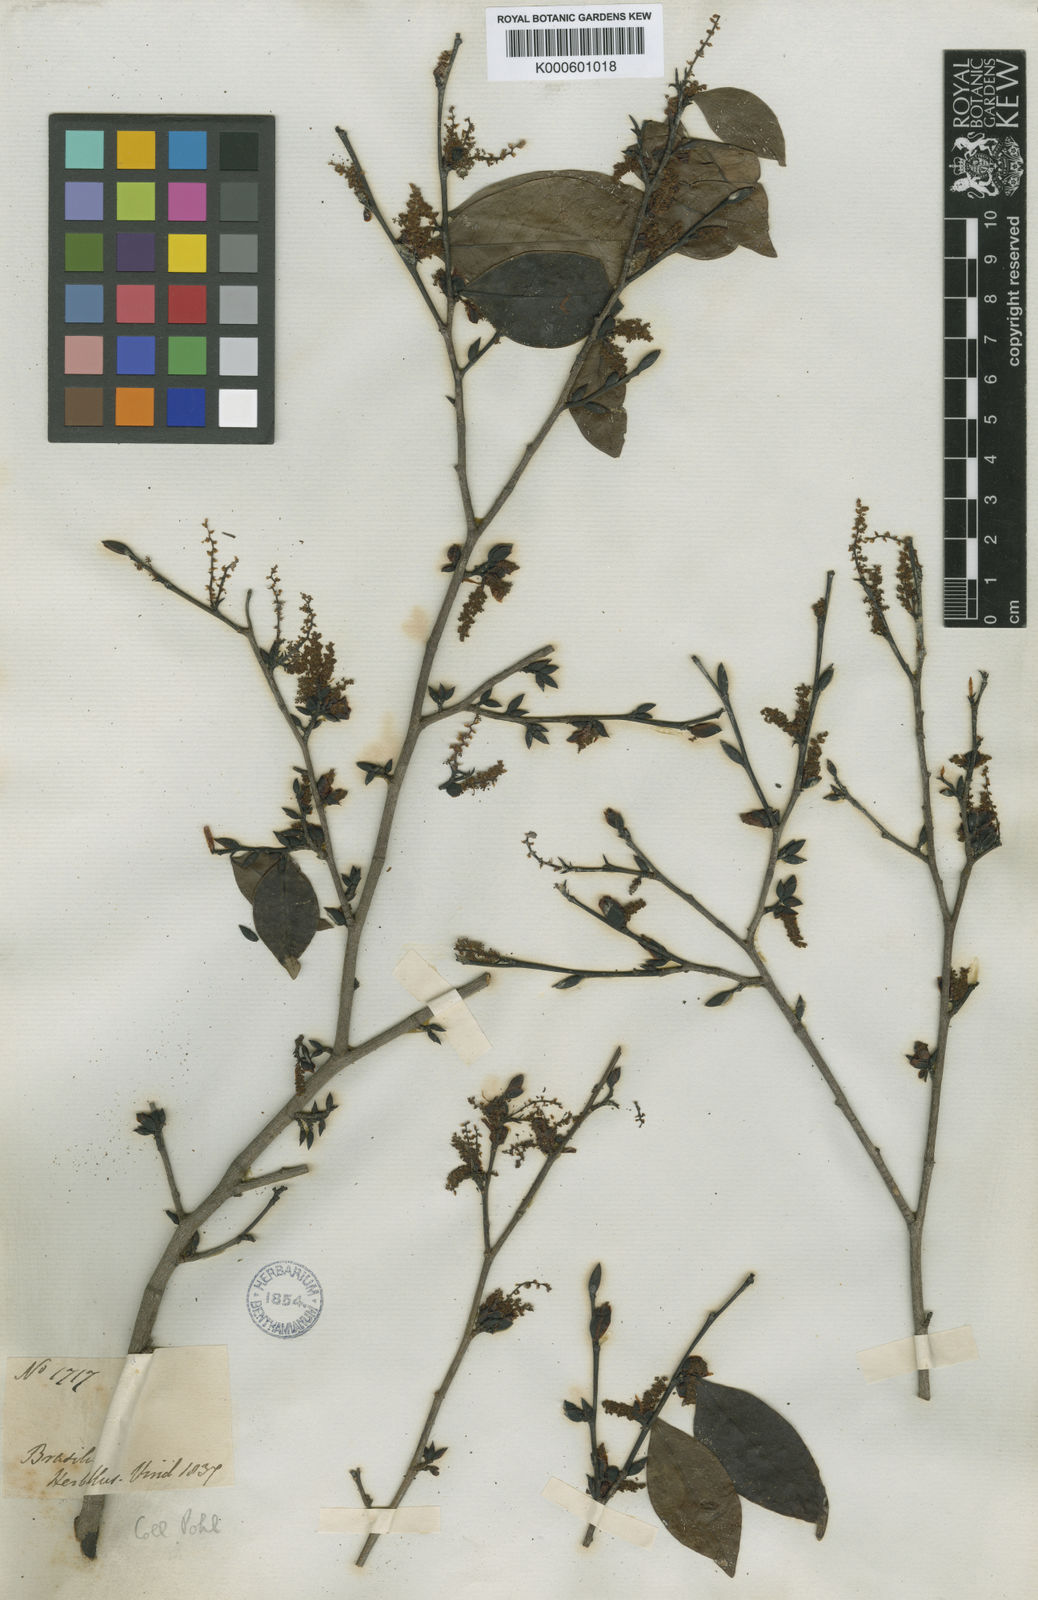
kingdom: Plantae
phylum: Tracheophyta
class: Magnoliopsida
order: Malpighiales
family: Euphorbiaceae
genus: Actinostemon
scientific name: Actinostemon
